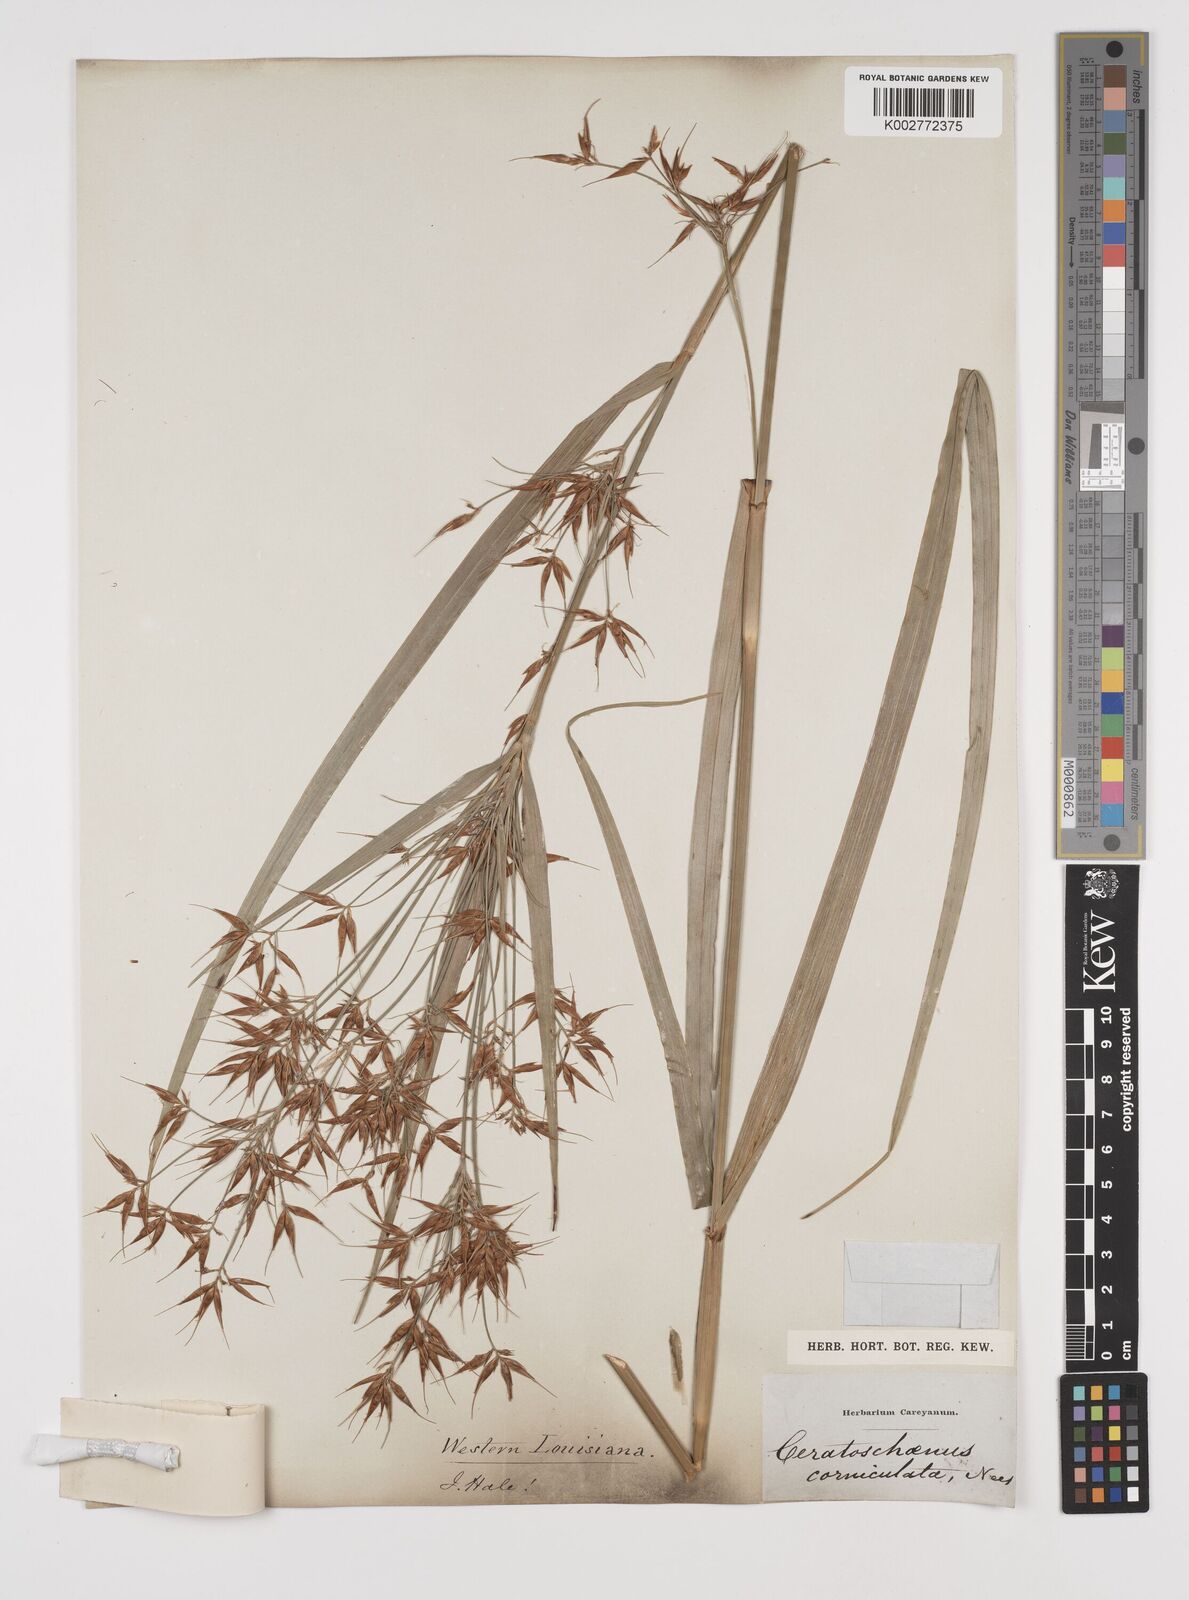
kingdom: Plantae
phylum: Tracheophyta
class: Liliopsida
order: Poales
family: Cyperaceae
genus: Rhynchospora
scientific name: Rhynchospora corniculata
